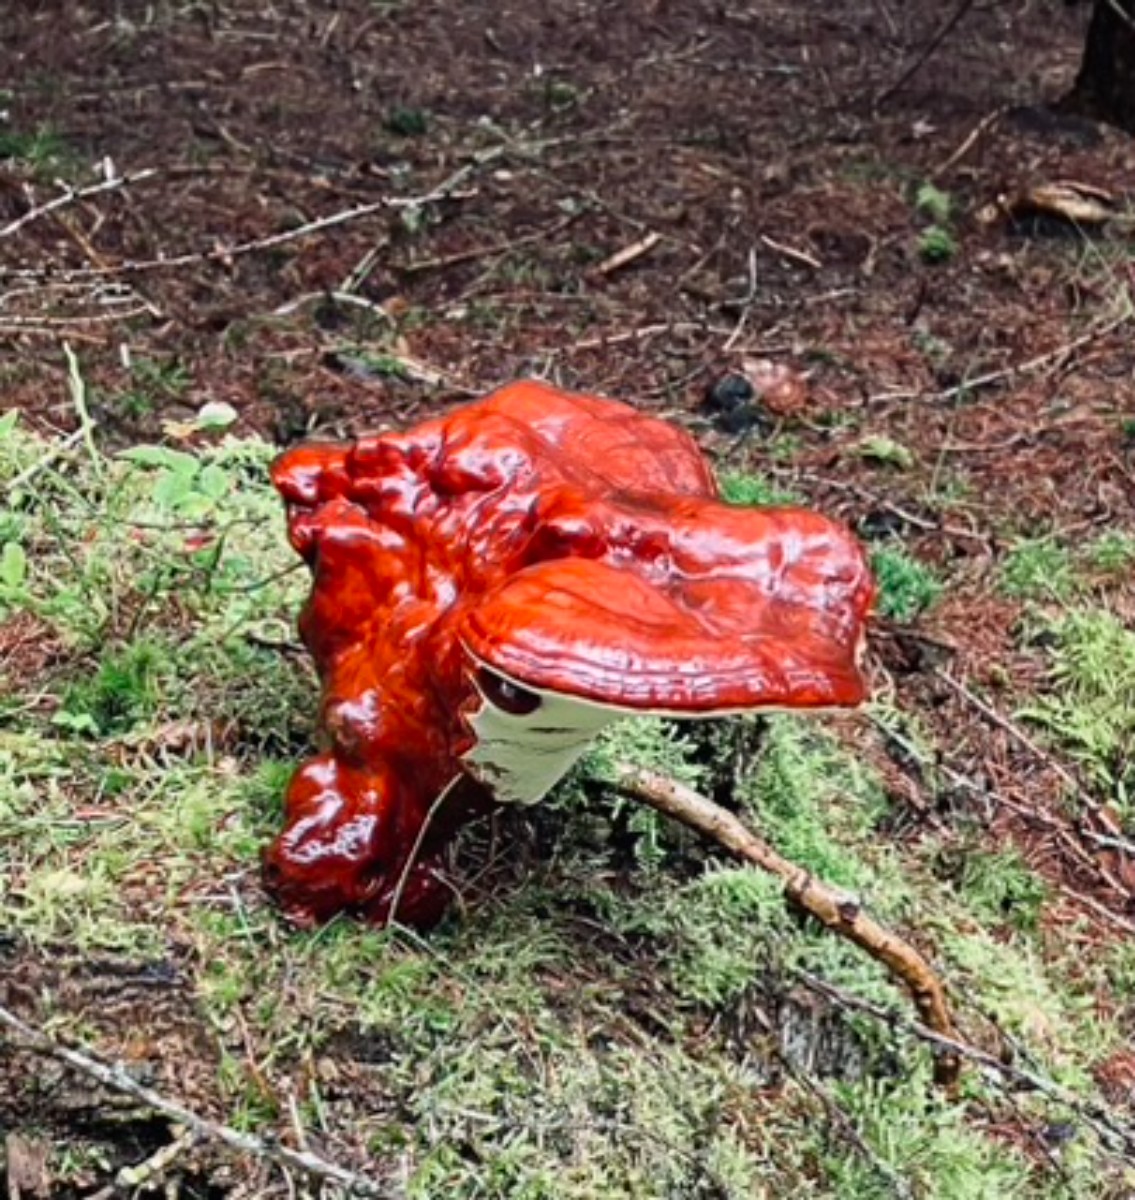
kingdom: Fungi
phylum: Basidiomycota
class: Agaricomycetes
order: Polyporales
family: Polyporaceae
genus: Ganoderma
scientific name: Ganoderma lucidum
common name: skinnende lakporesvamp
